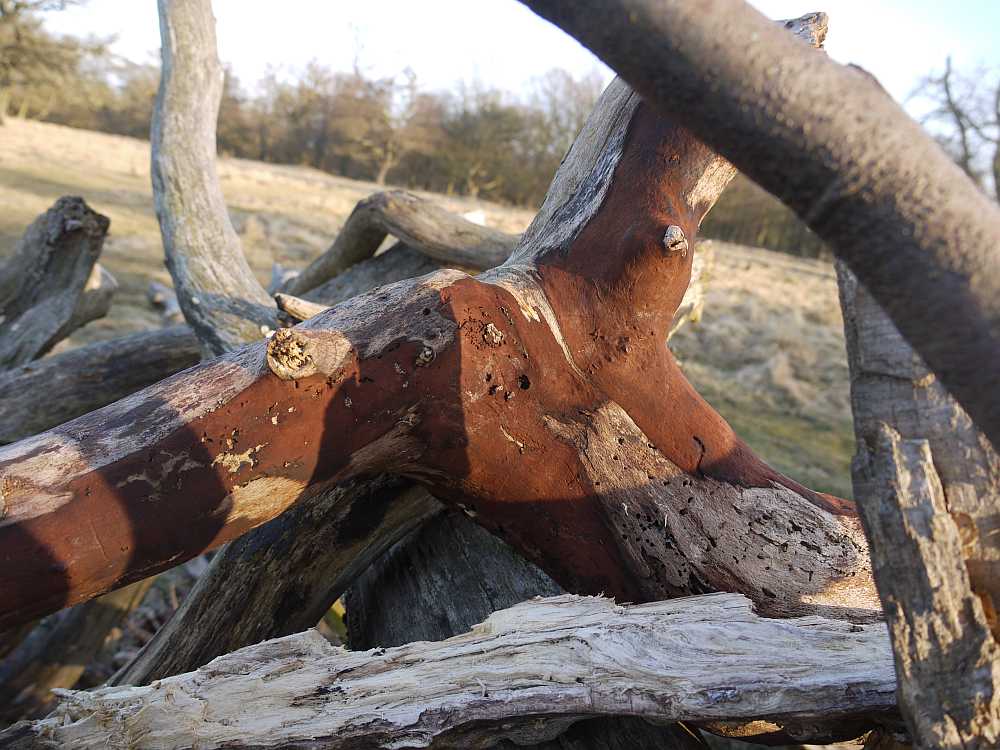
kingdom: Fungi
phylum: Ascomycota
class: Sordariomycetes
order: Xylariales
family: Hypoxylaceae
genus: Hypoxylon
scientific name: Hypoxylon macrocarpum
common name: skorpe-kulbær
